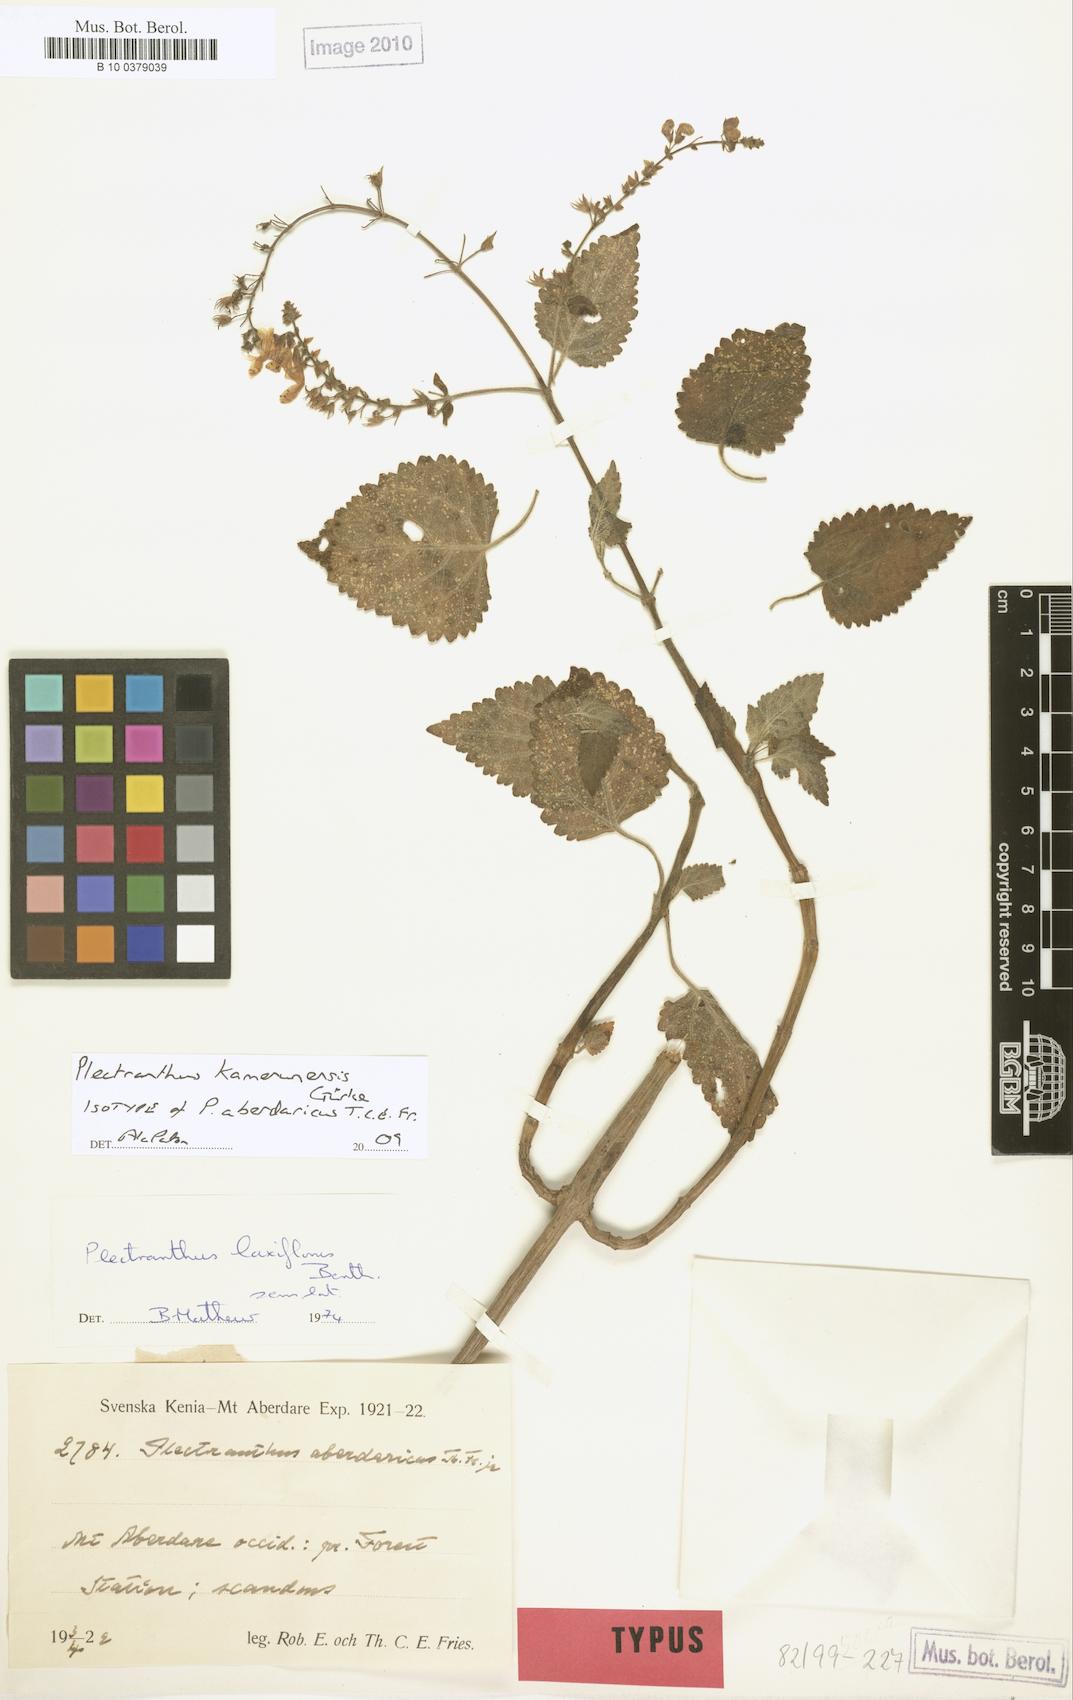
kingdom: Plantae
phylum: Tracheophyta
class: Magnoliopsida
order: Lamiales
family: Lamiaceae
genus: Equilabium
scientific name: Equilabium kamerunense
